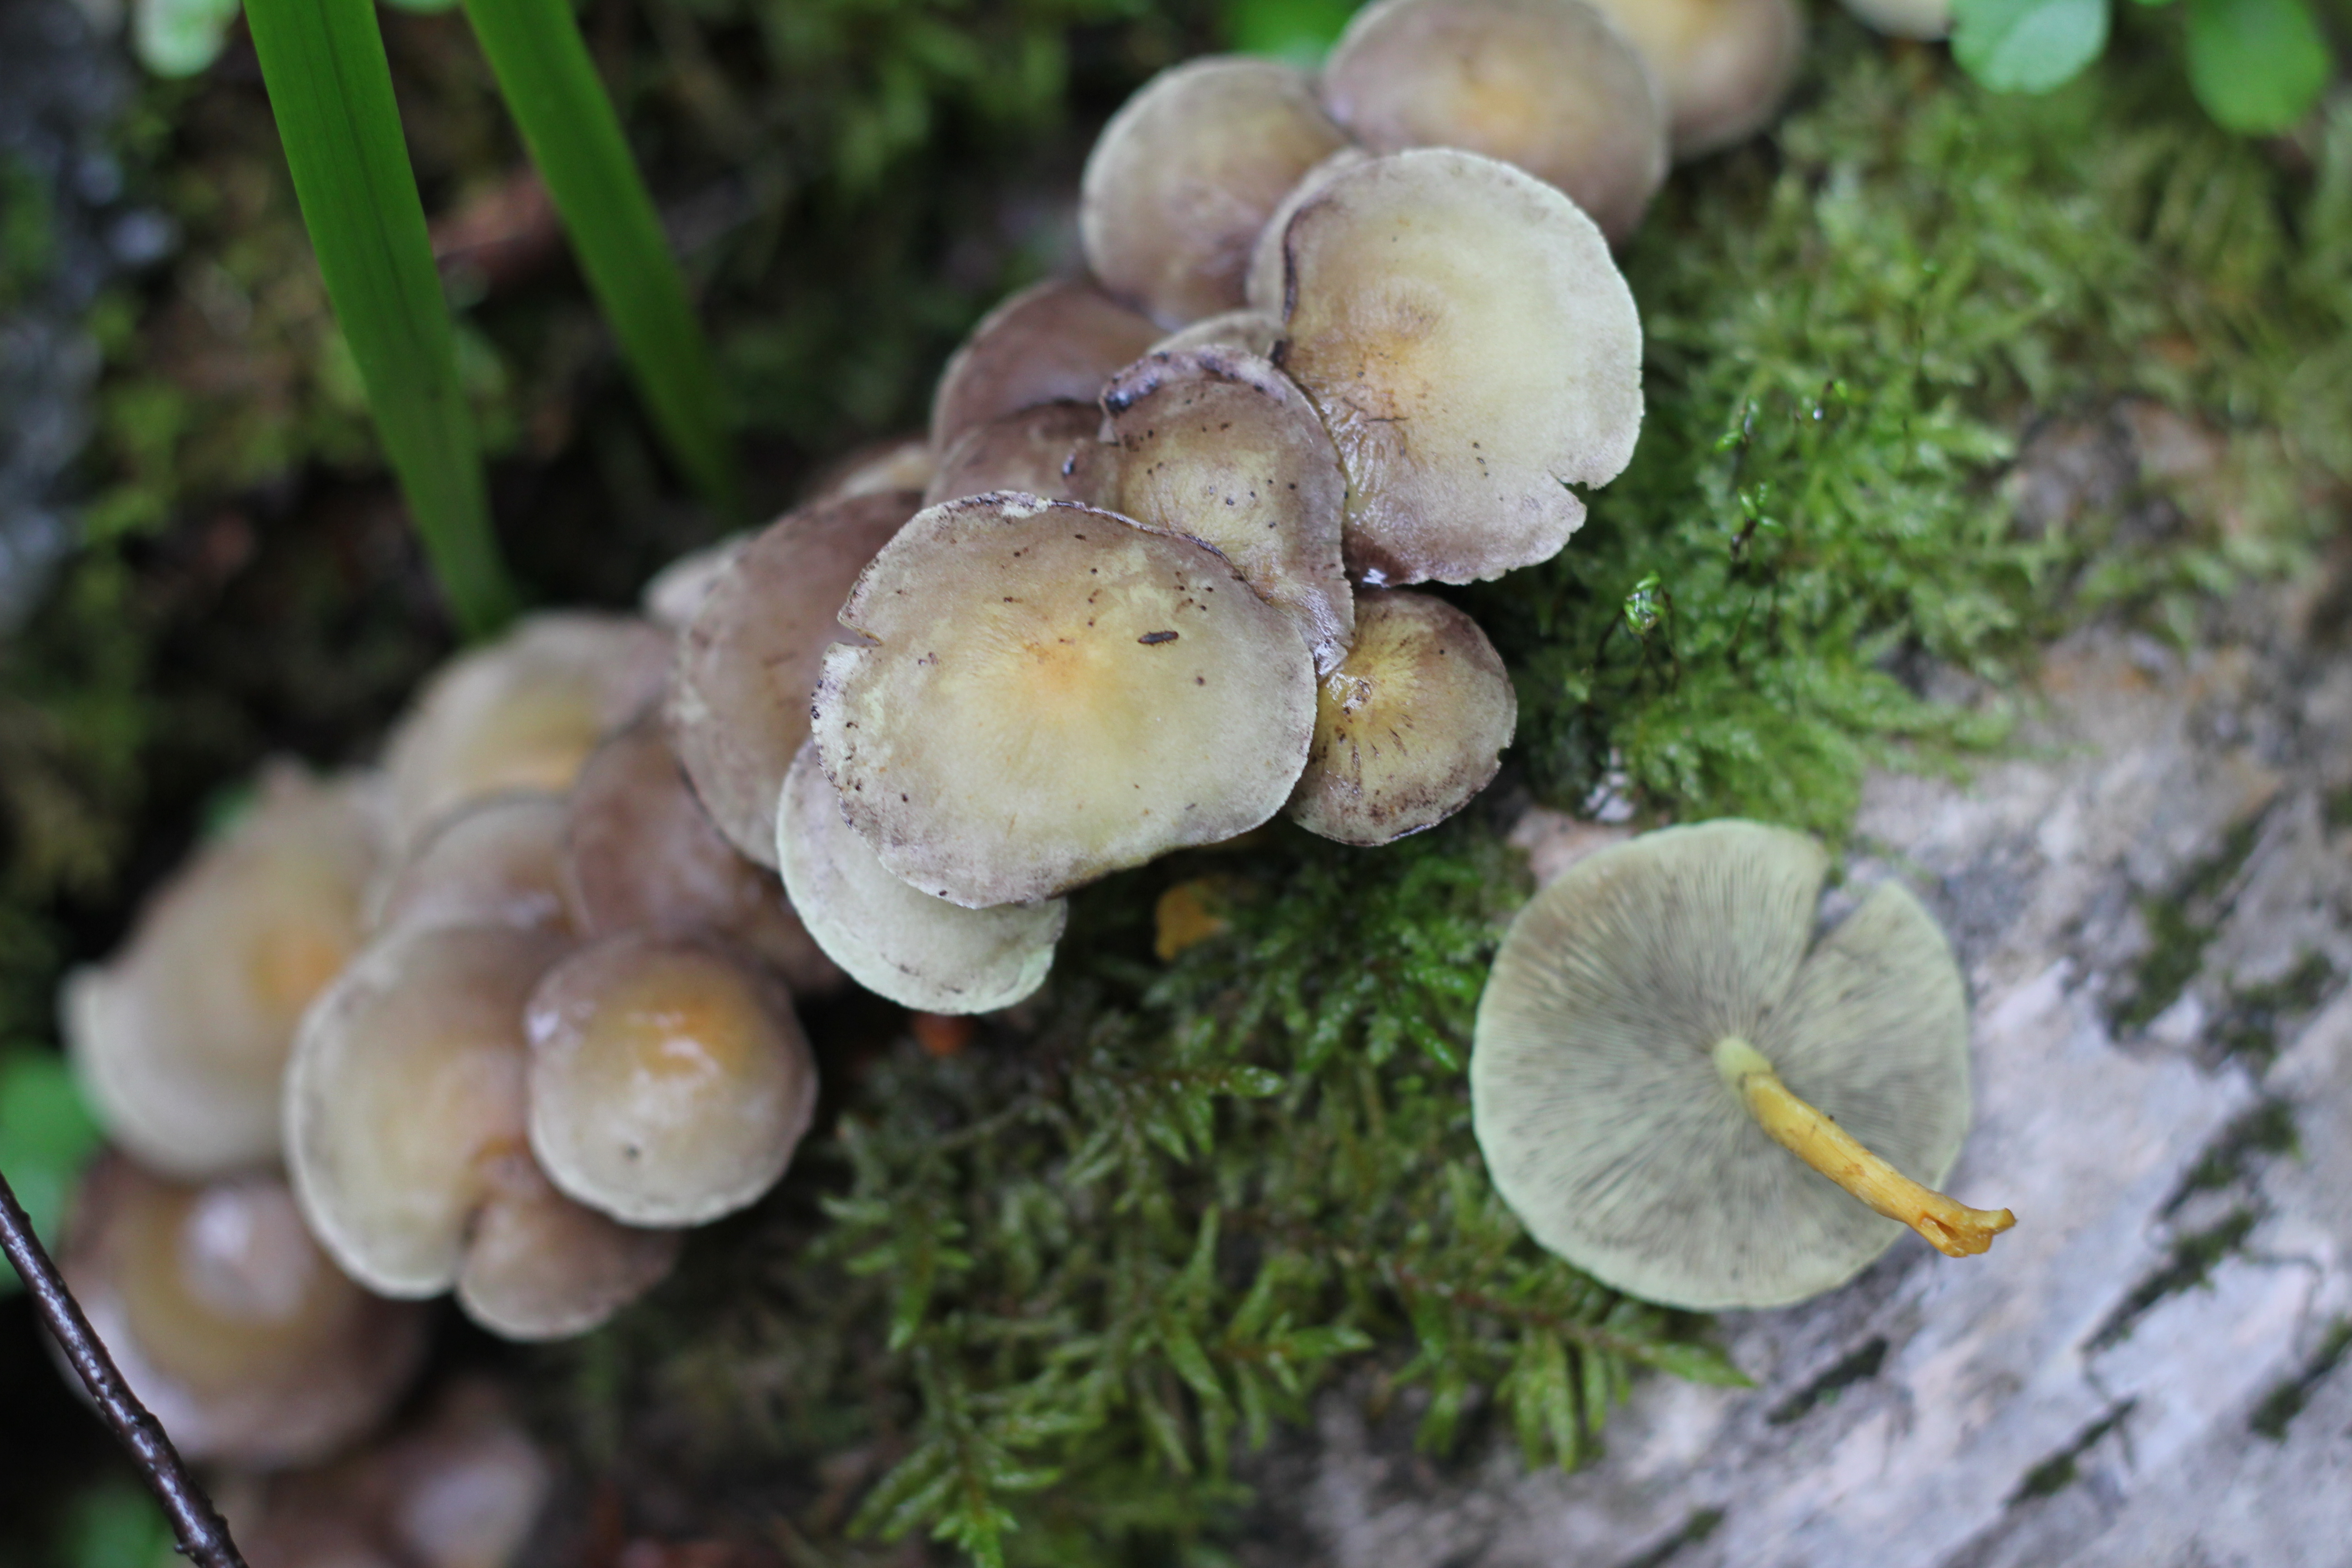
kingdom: Fungi
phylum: Basidiomycota
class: Agaricomycetes
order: Agaricales
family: Strophariaceae
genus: Hypholoma
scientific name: Hypholoma fasciculare
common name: Sulphur tuft
